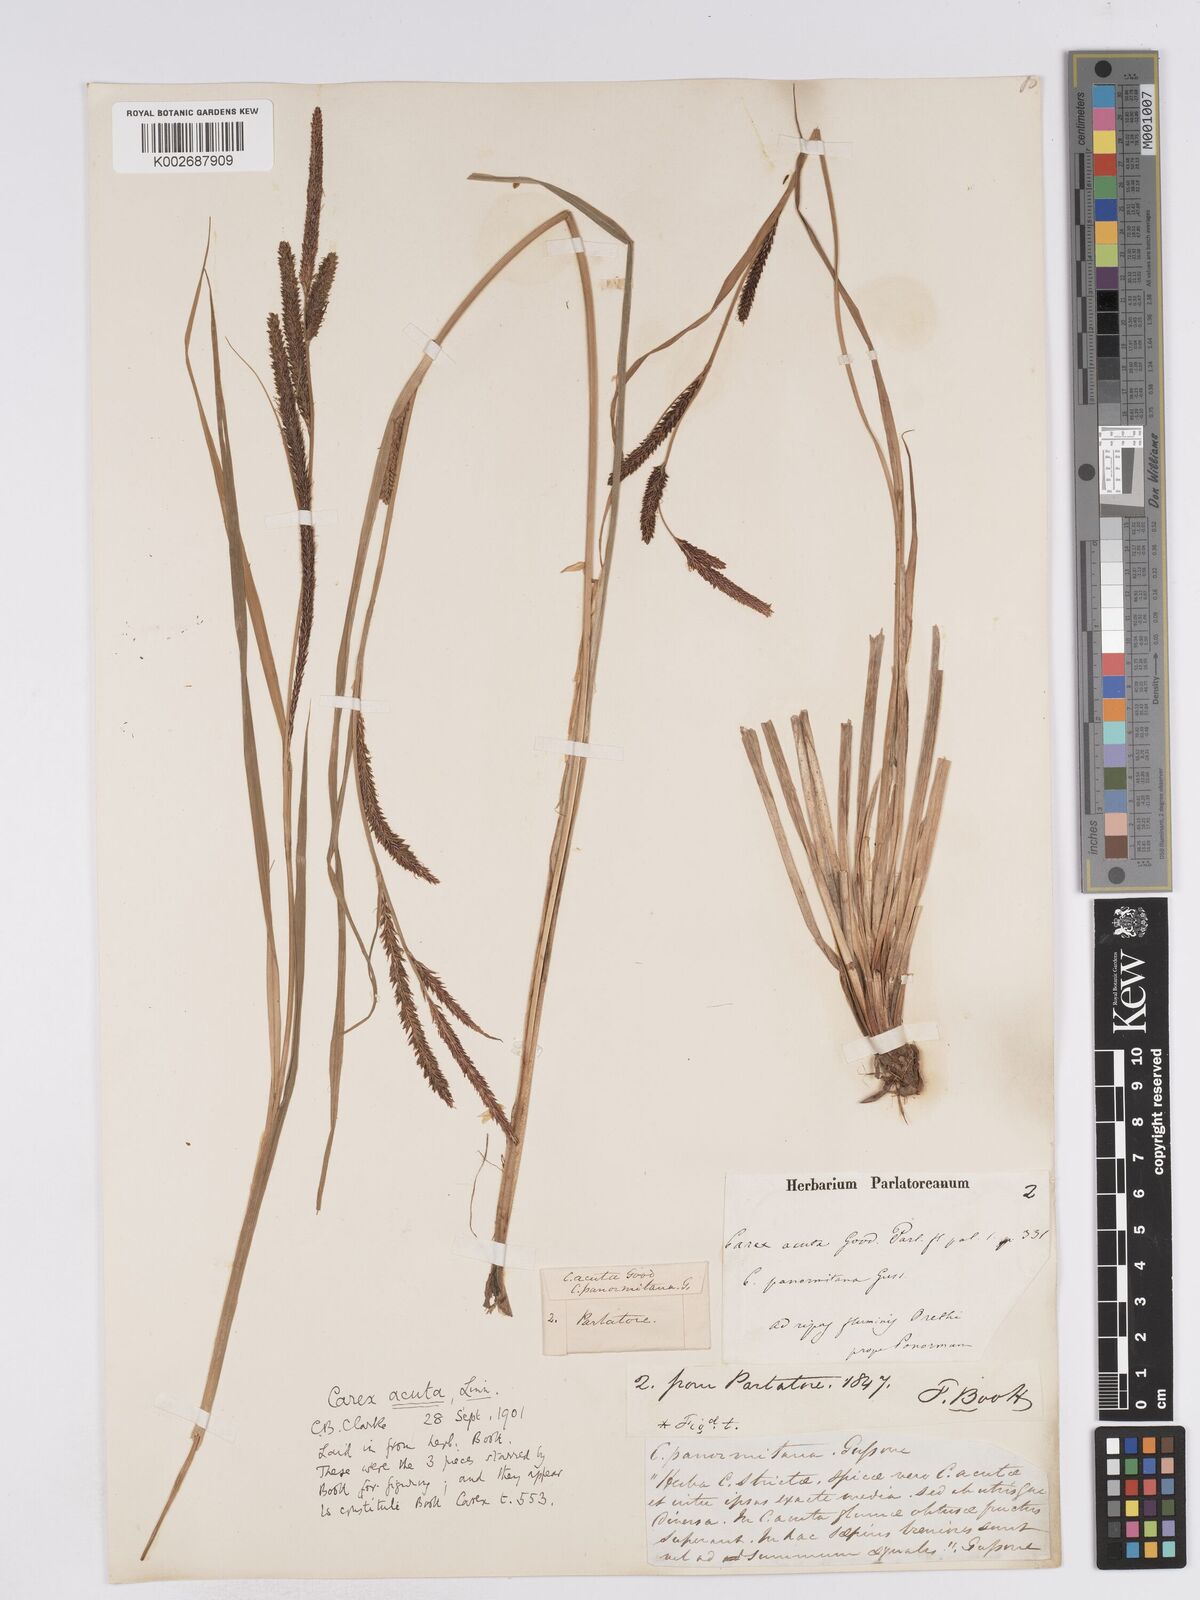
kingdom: Plantae
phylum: Tracheophyta
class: Liliopsida
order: Poales
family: Cyperaceae
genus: Carex
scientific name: Carex acuta
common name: Slender tufted-sedge
